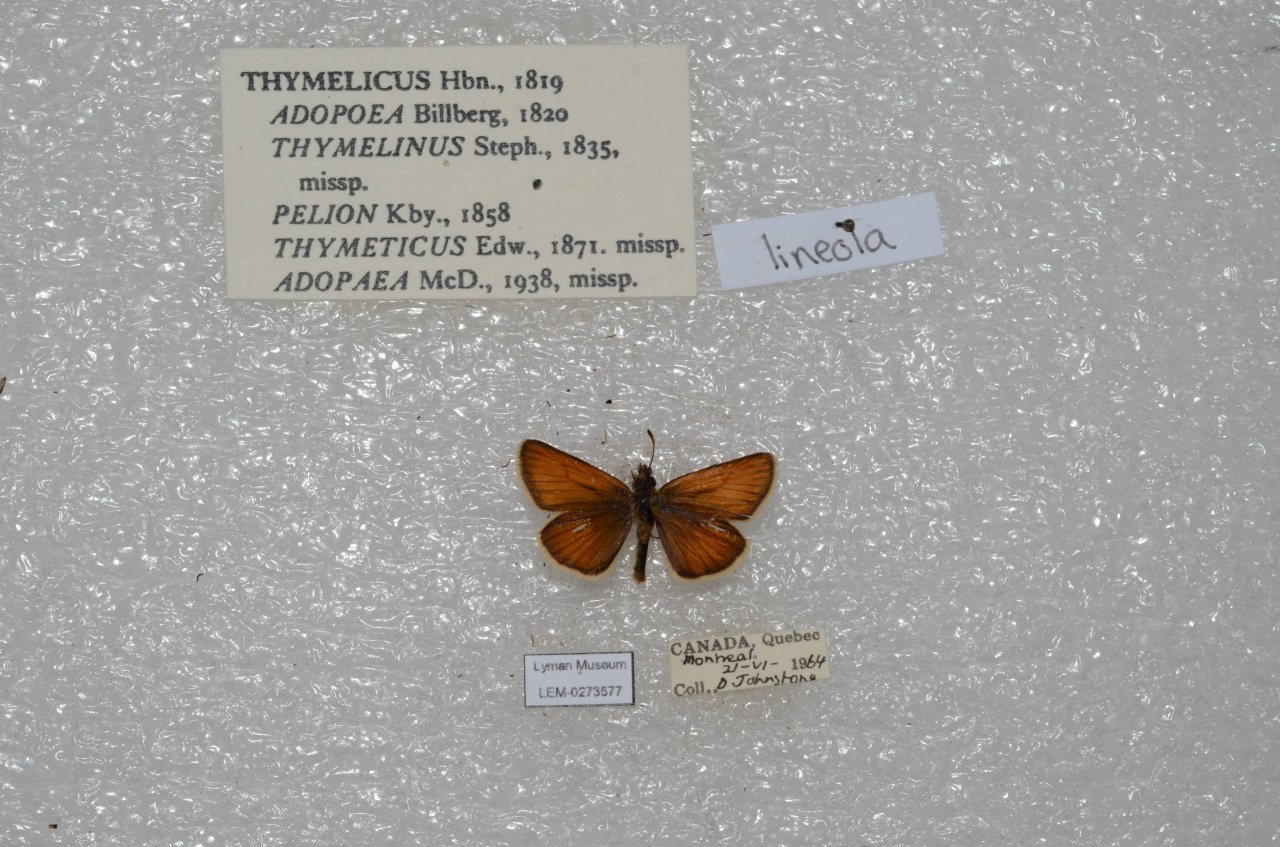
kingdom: Animalia
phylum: Arthropoda
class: Insecta
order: Lepidoptera
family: Hesperiidae
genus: Thymelicus
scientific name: Thymelicus lineola
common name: European Skipper
